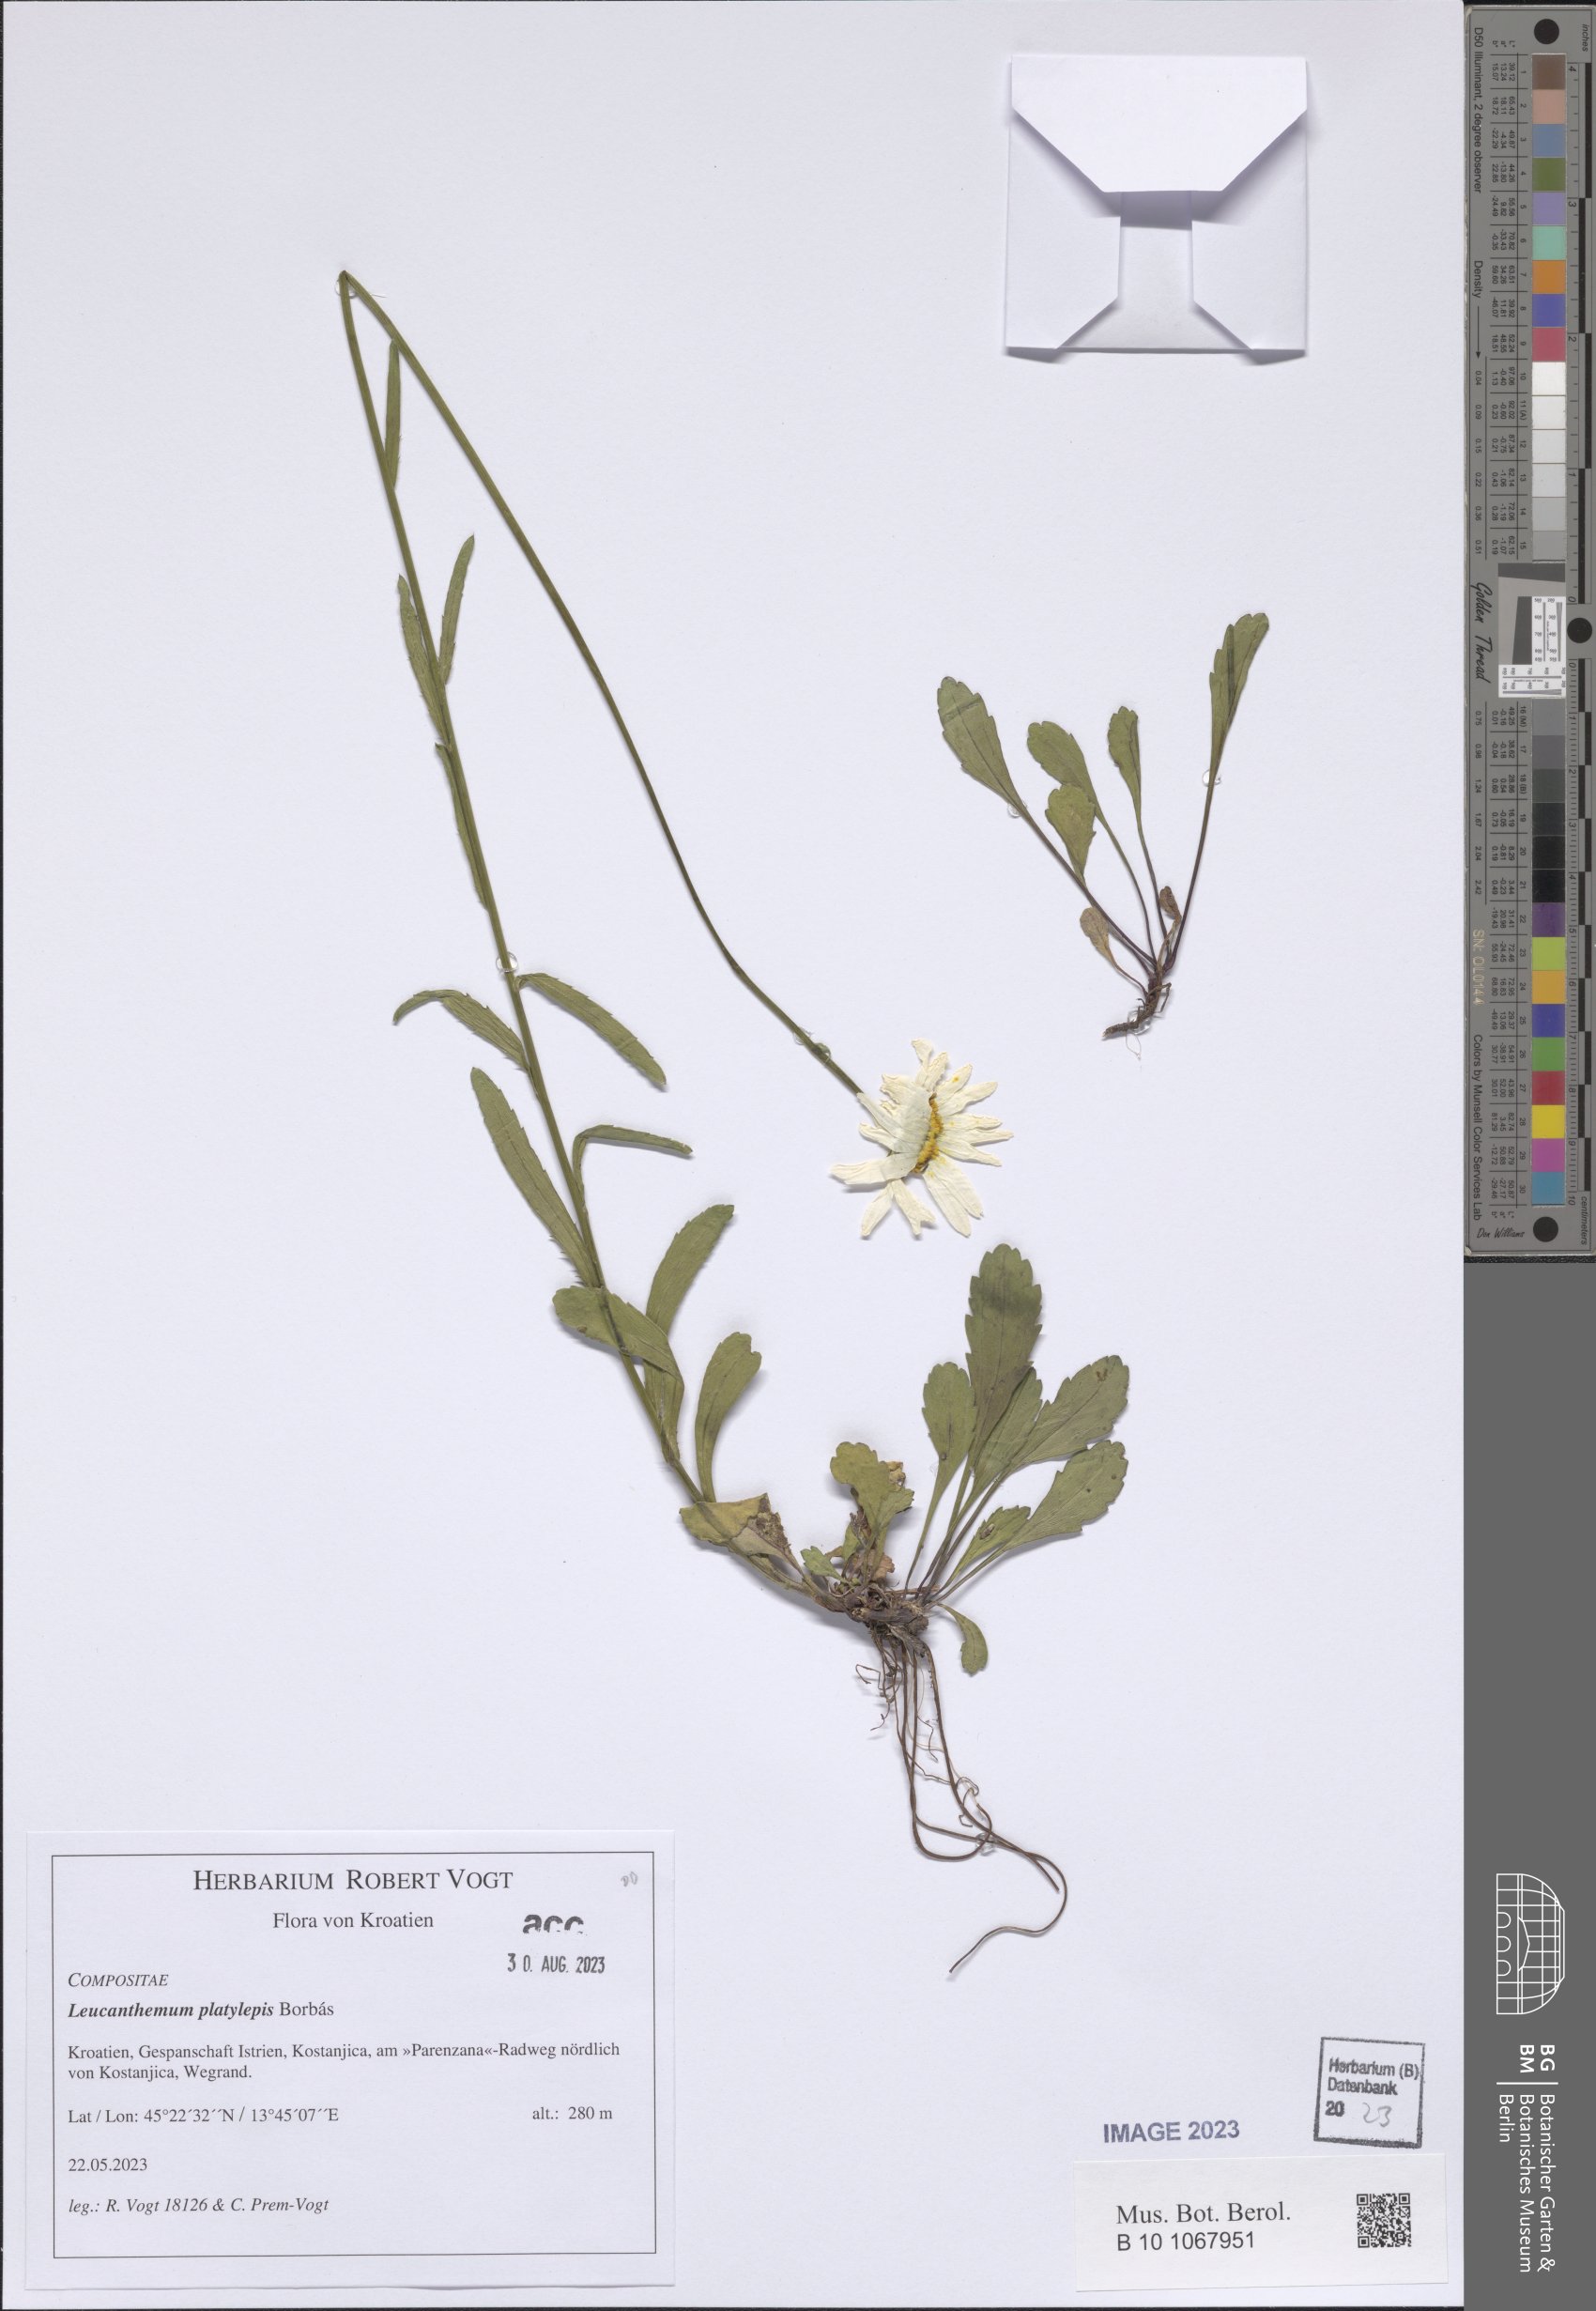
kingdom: Plantae
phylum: Tracheophyta
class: Magnoliopsida
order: Asterales
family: Asteraceae
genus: Leucanthemum
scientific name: Leucanthemum platylepis
